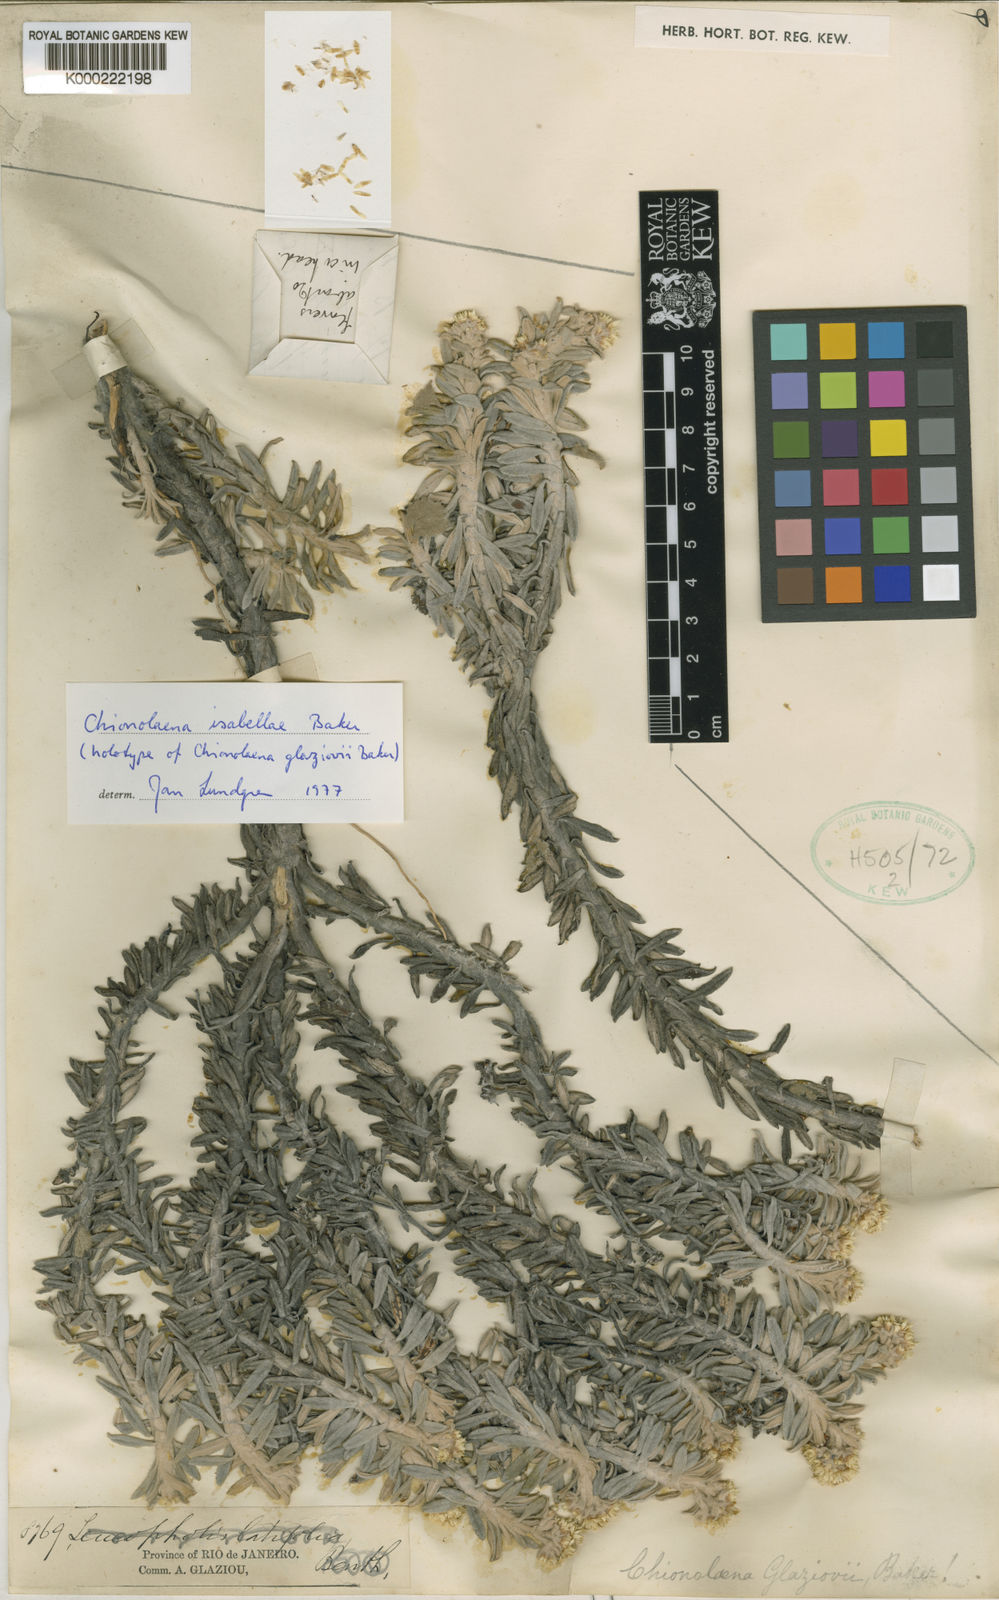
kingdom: Plantae
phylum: Tracheophyta
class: Magnoliopsida
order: Asterales
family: Asteraceae
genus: Chionolaena
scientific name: Chionolaena isabellae
